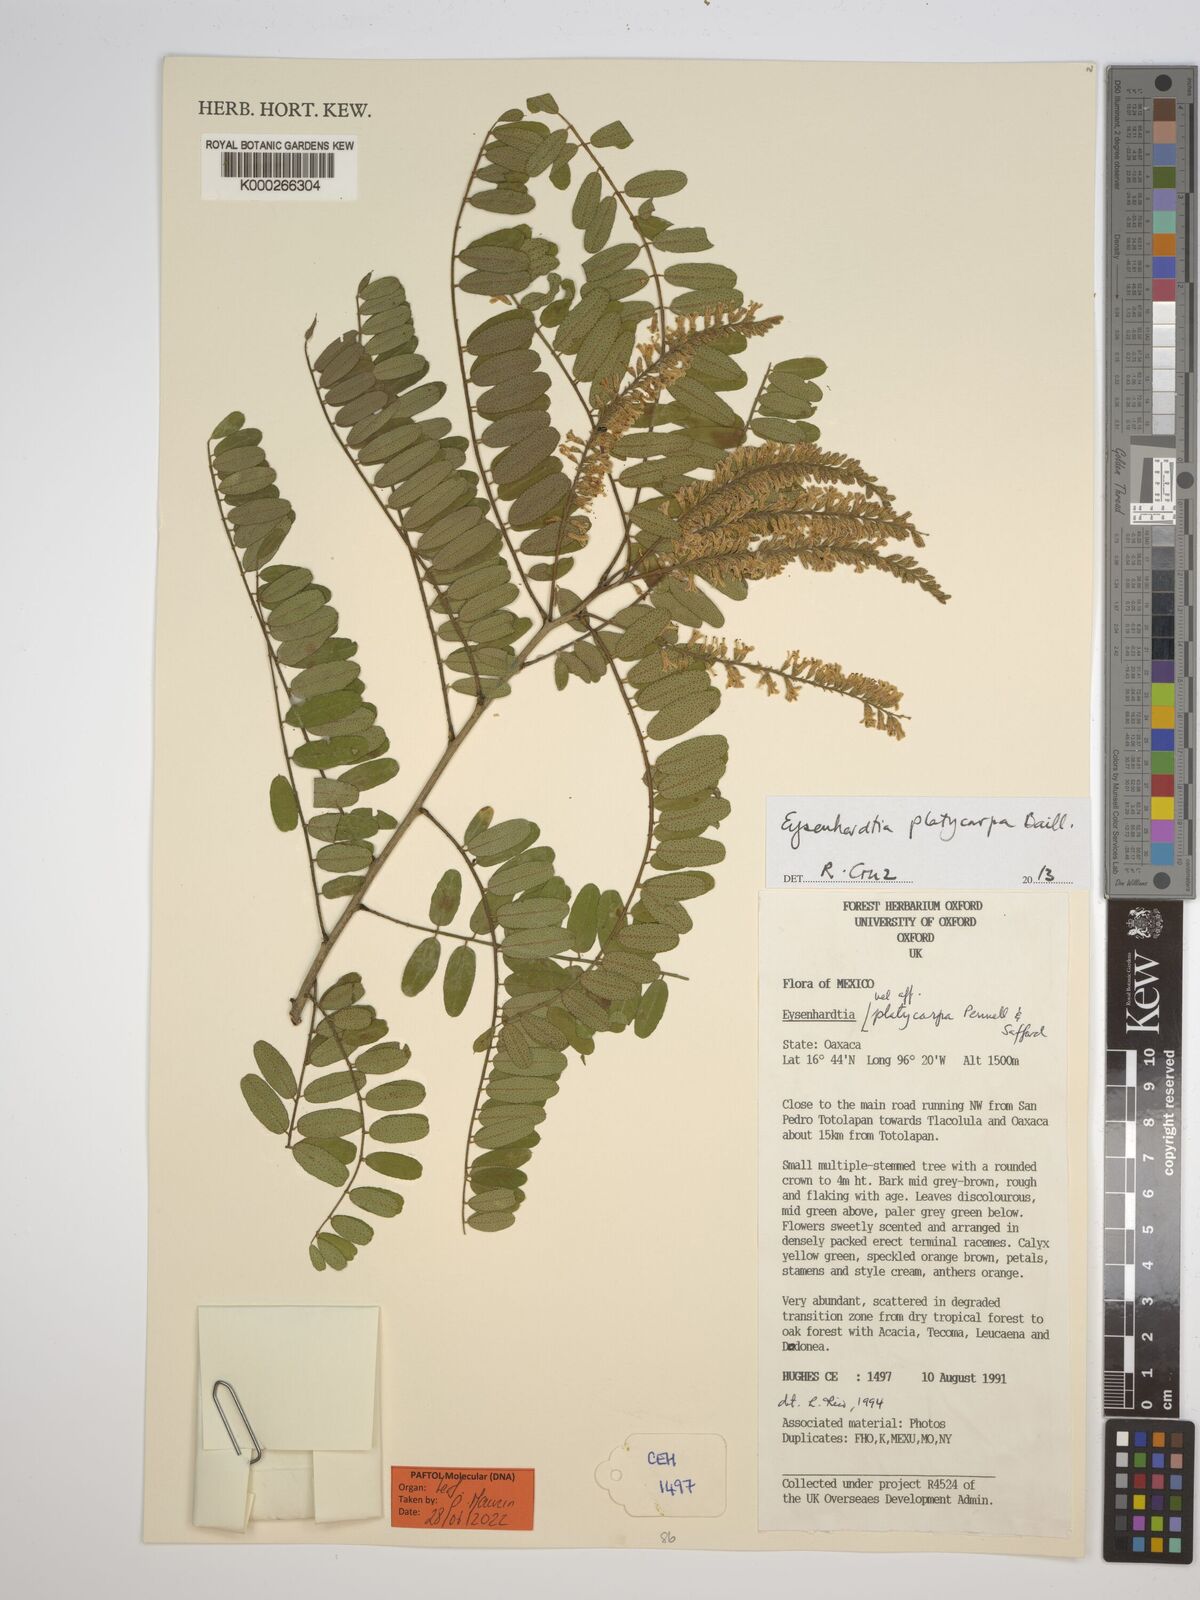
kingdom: Plantae
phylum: Tracheophyta
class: Magnoliopsida
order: Fabales
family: Fabaceae
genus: Eysenhardtia
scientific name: Eysenhardtia platycarpa
